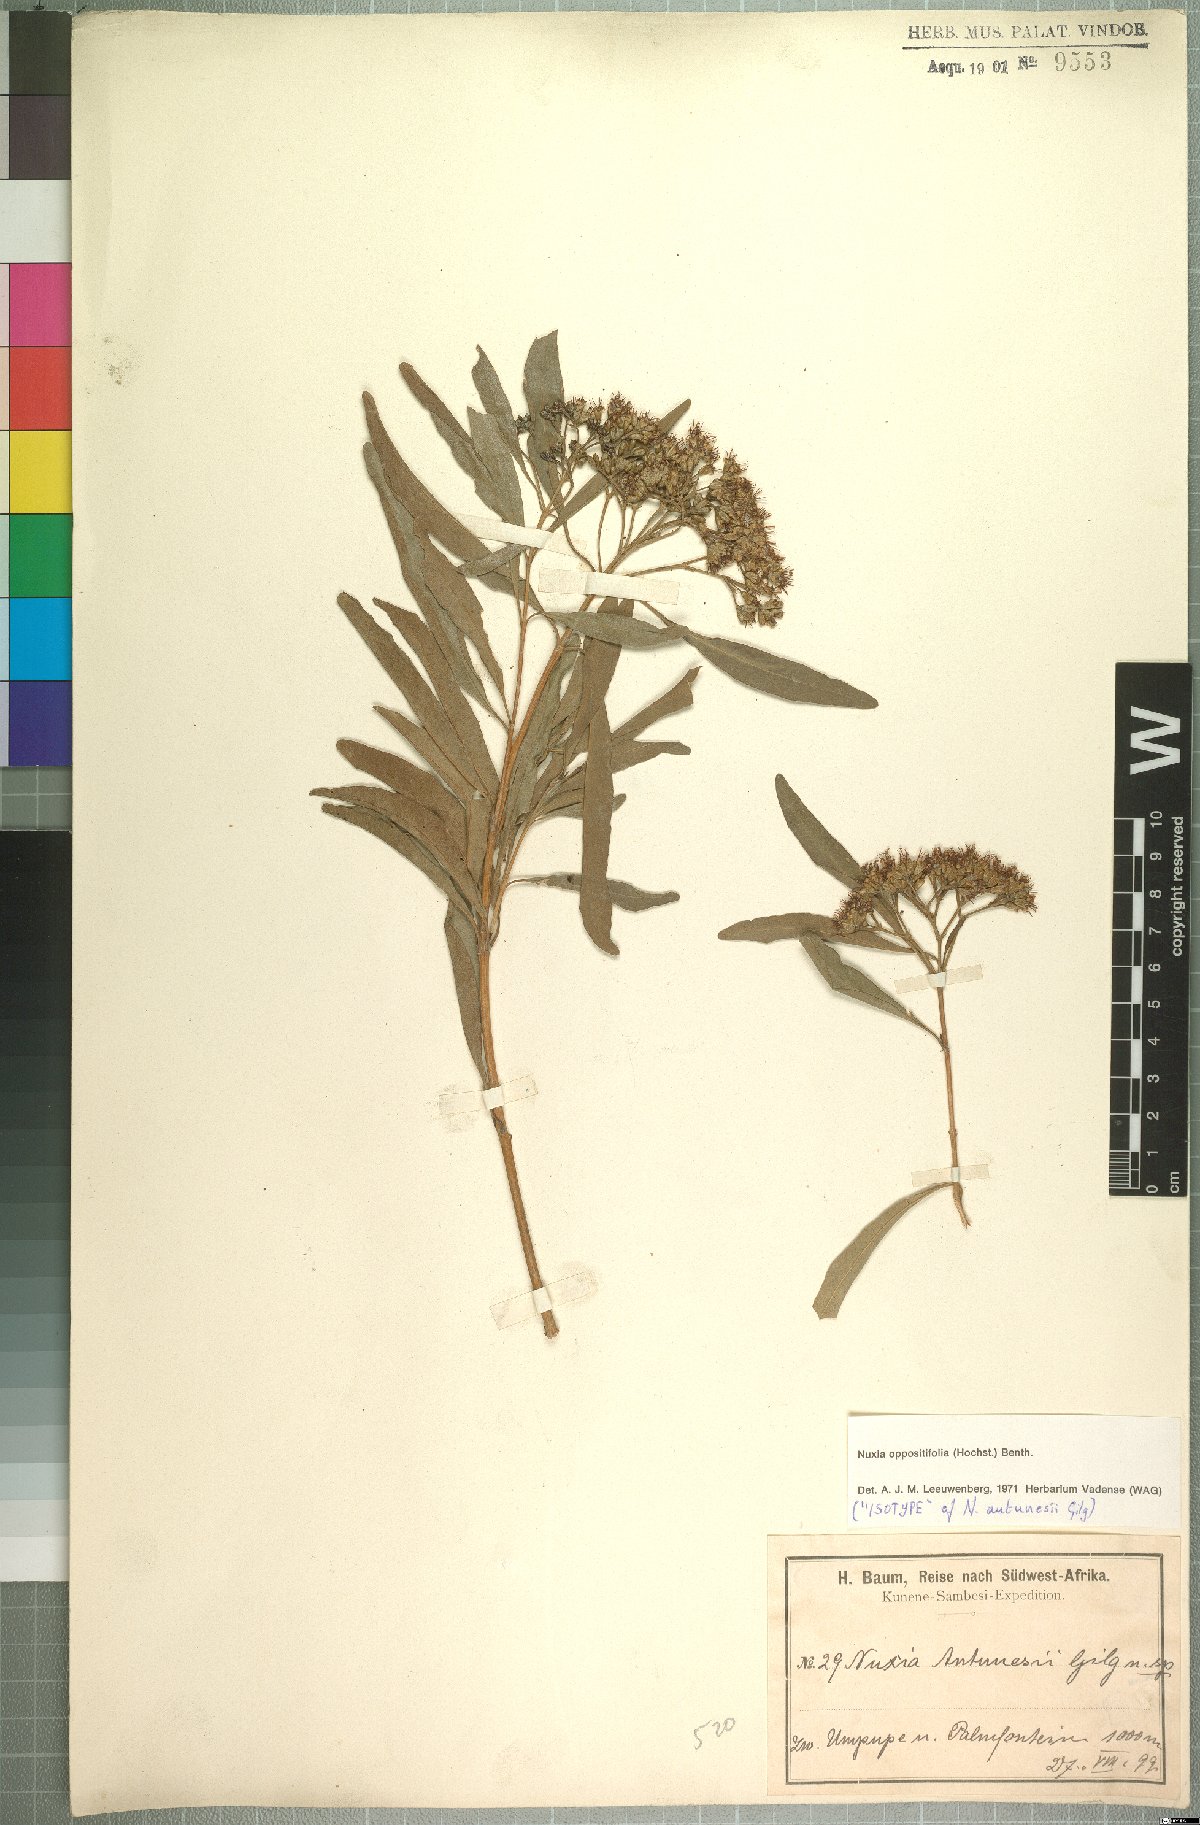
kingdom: Plantae
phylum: Tracheophyta
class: Magnoliopsida
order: Lamiales
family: Stilbaceae
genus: Nuxia
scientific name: Nuxia oppositifolia
